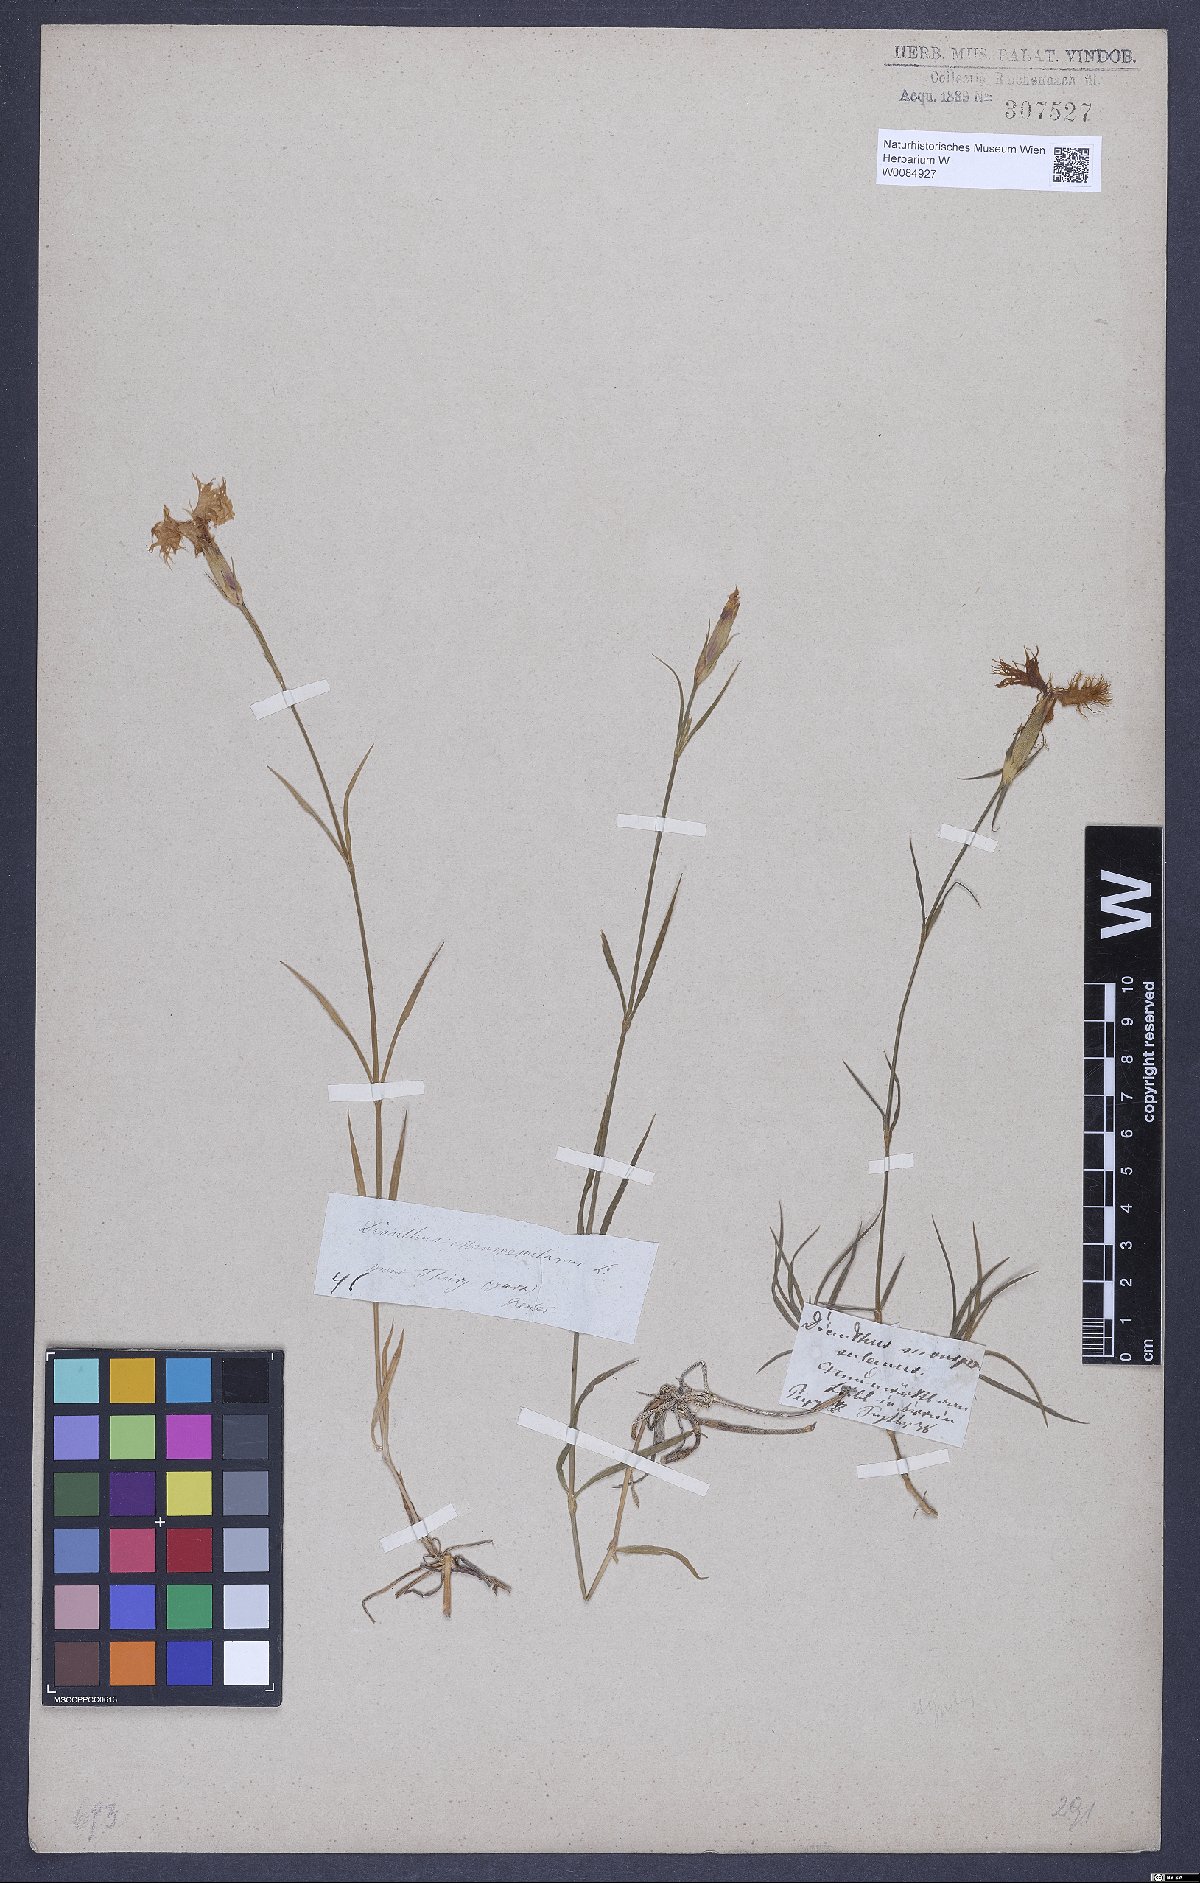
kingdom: Plantae
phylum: Tracheophyta
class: Magnoliopsida
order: Caryophyllales
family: Caryophyllaceae
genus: Dianthus
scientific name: Dianthus hyssopifolius
